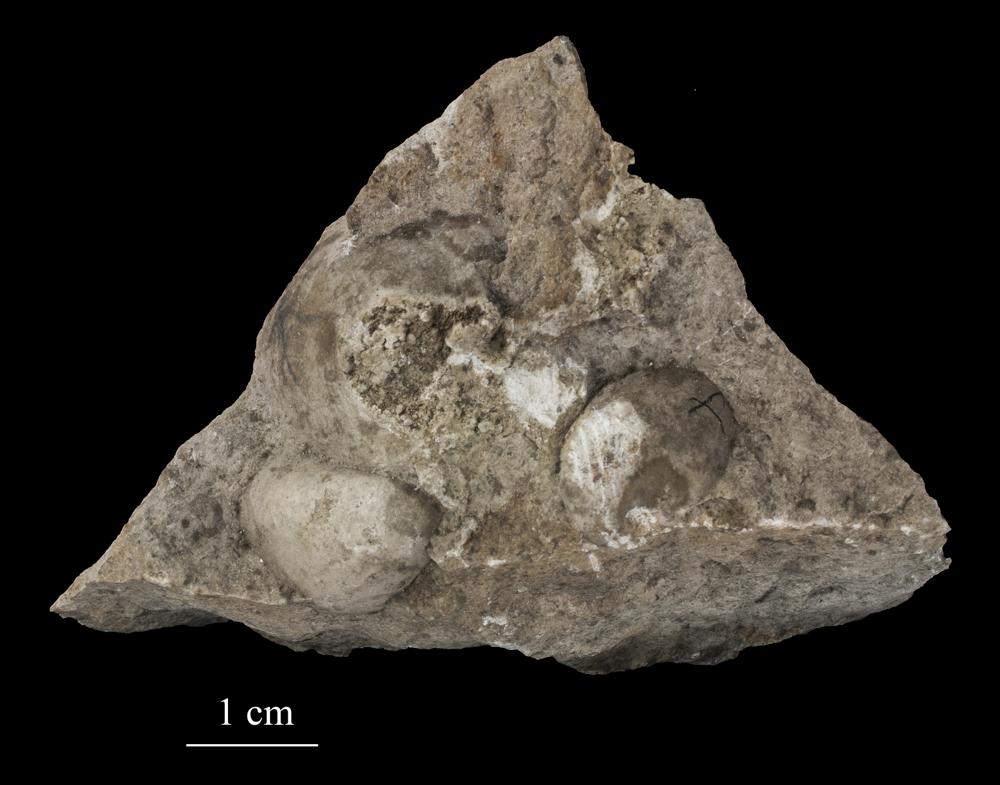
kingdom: Animalia
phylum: Mollusca
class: Bivalvia
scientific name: Bivalvia
